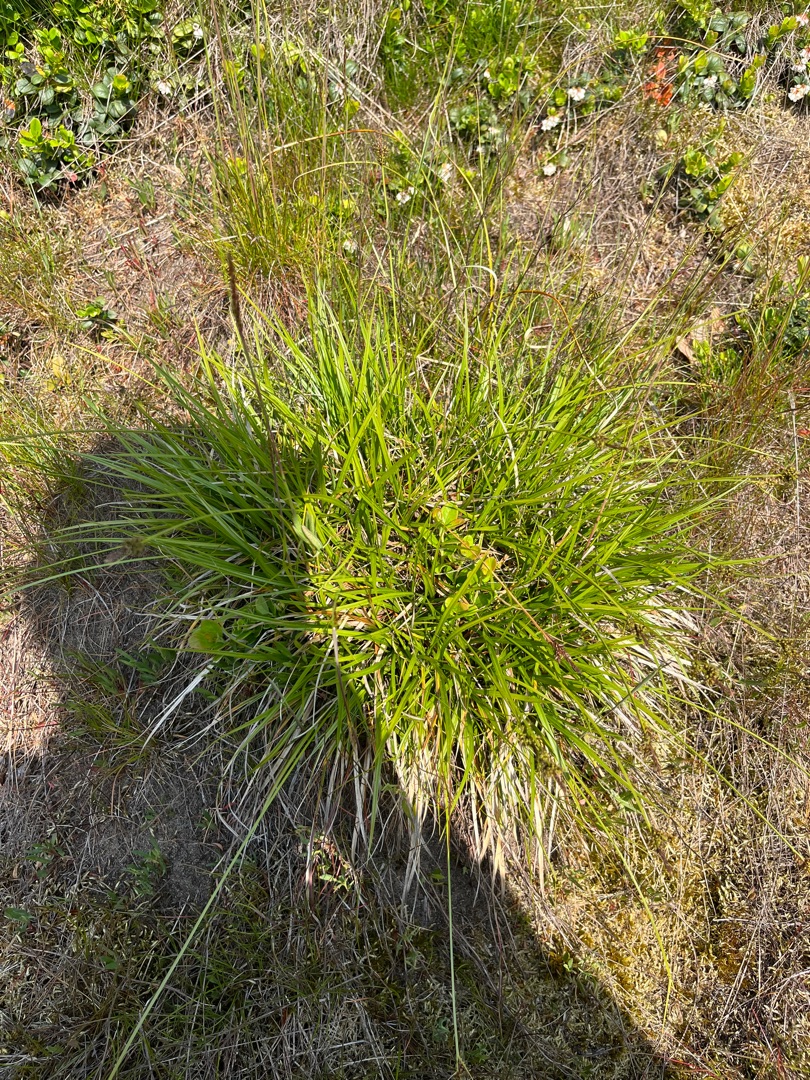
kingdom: Plantae
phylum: Tracheophyta
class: Liliopsida
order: Poales
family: Cyperaceae
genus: Carex
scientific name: Carex pilulifera
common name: Pille-star
